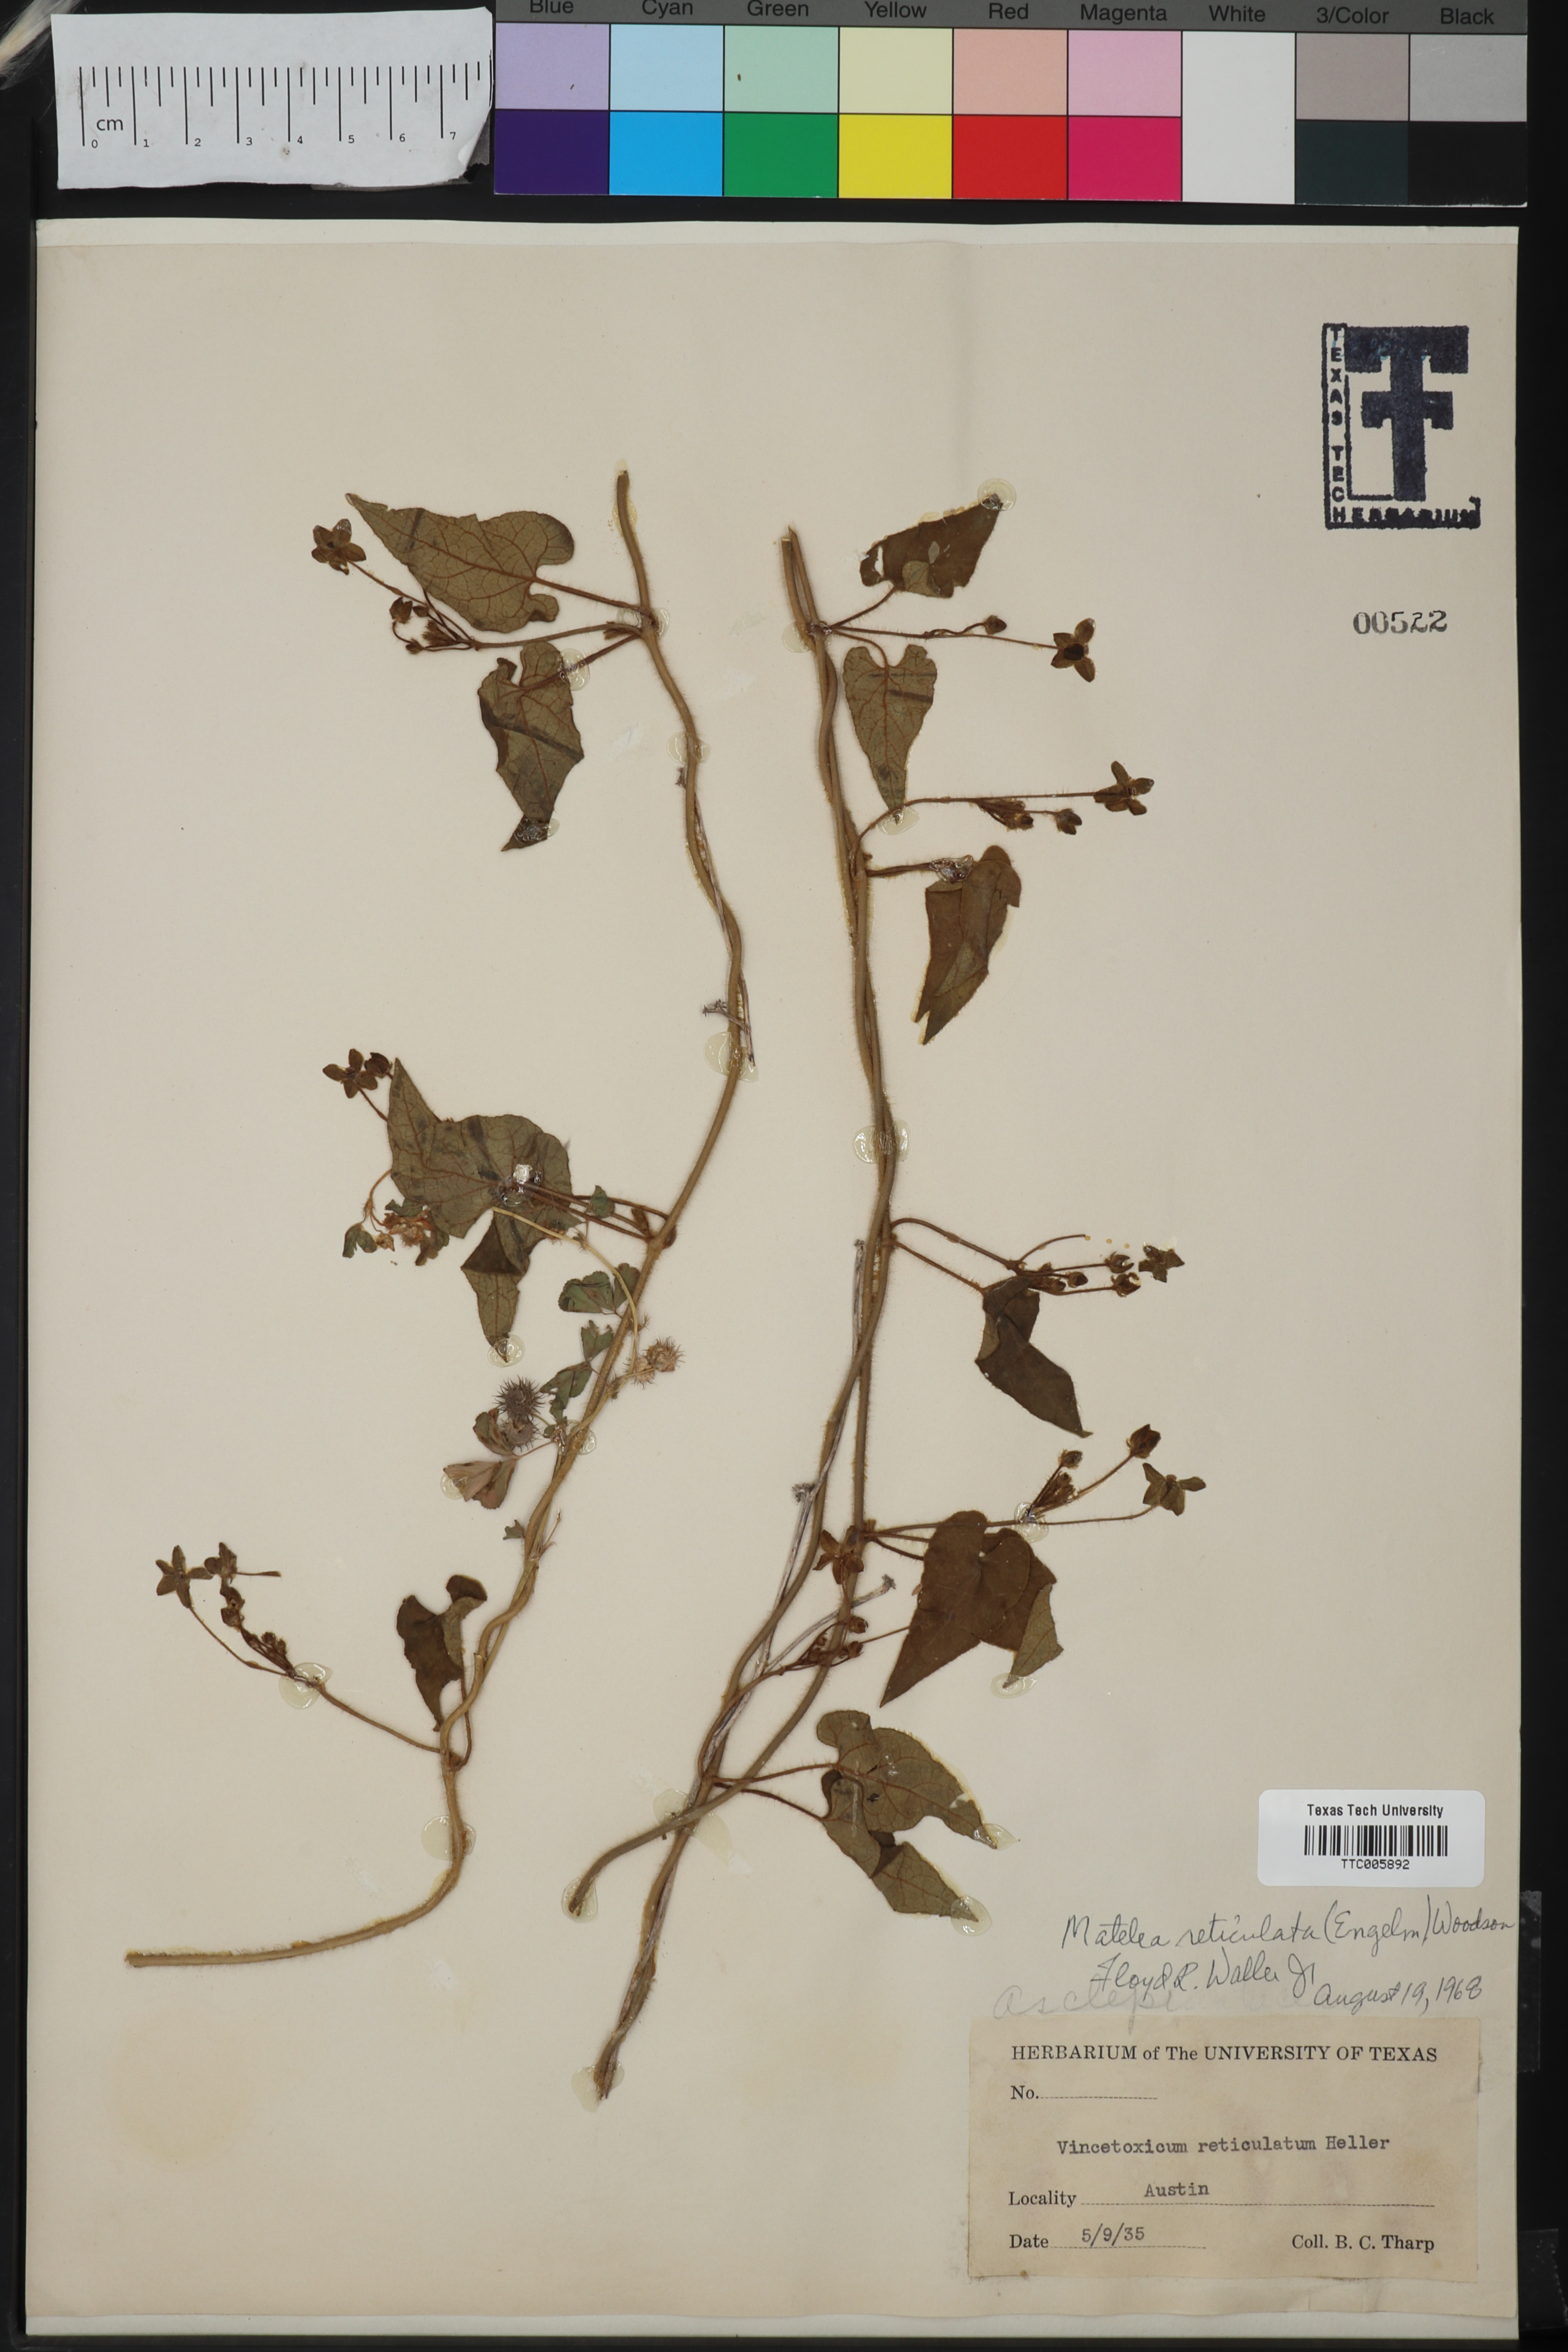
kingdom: Plantae
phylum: Tracheophyta
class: Magnoliopsida
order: Gentianales
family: Apocynaceae
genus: Dictyanthus
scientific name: Dictyanthus reticulatus
